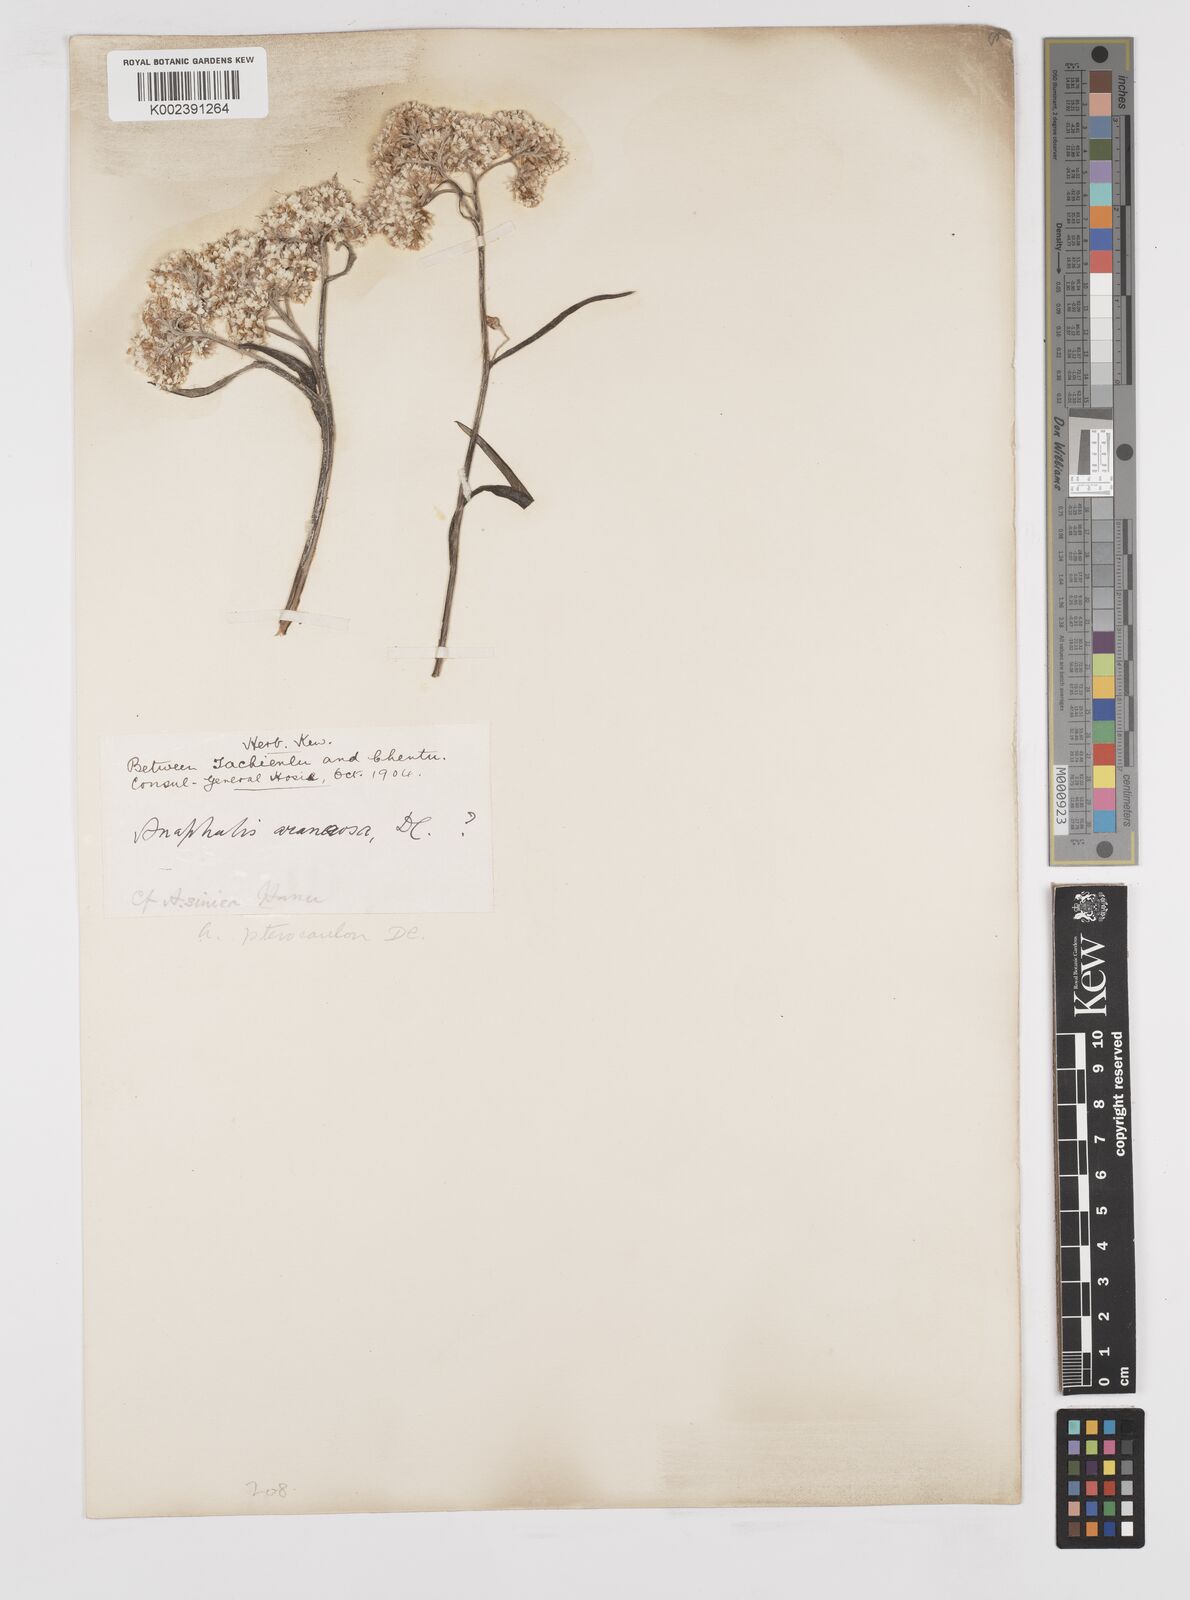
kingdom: Plantae
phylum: Tracheophyta
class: Magnoliopsida
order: Asterales
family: Asteraceae
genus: Anaphalis
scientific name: Anaphalis sinica
